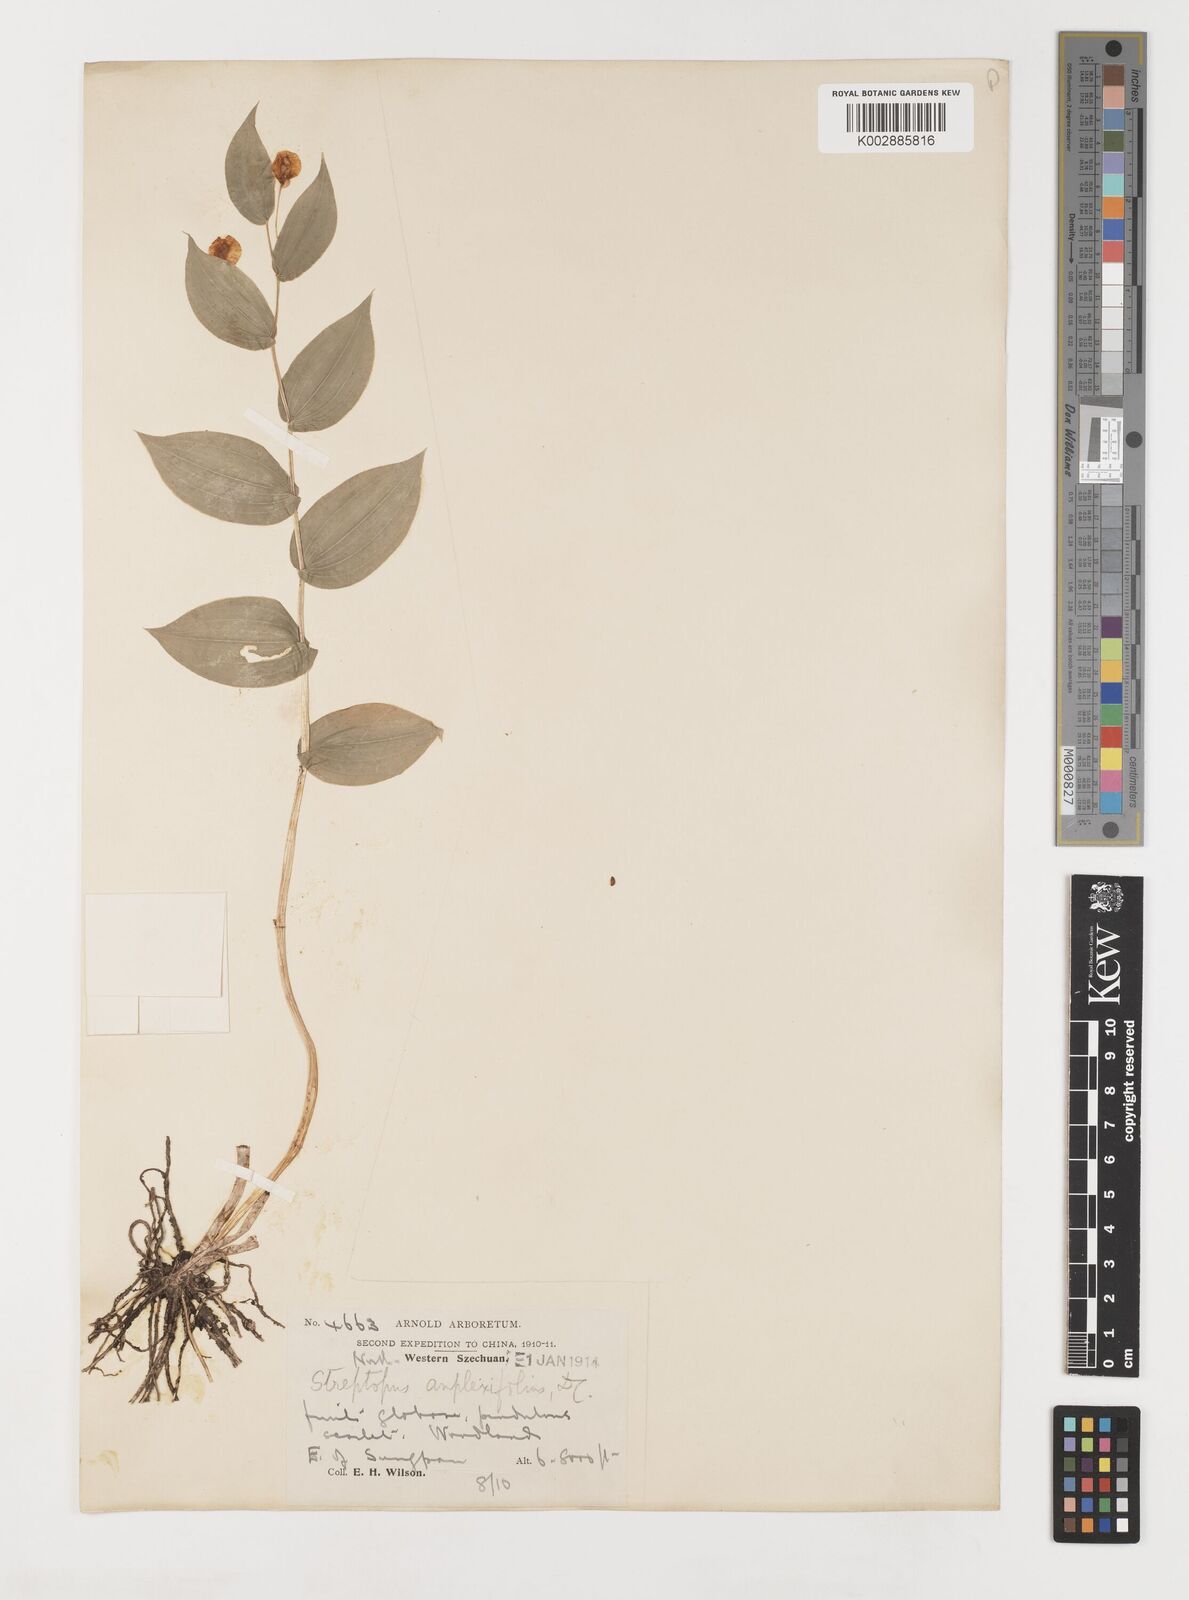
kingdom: Plantae
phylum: Tracheophyta
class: Liliopsida
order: Liliales
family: Liliaceae
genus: Streptopus
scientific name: Streptopus parviflorus
